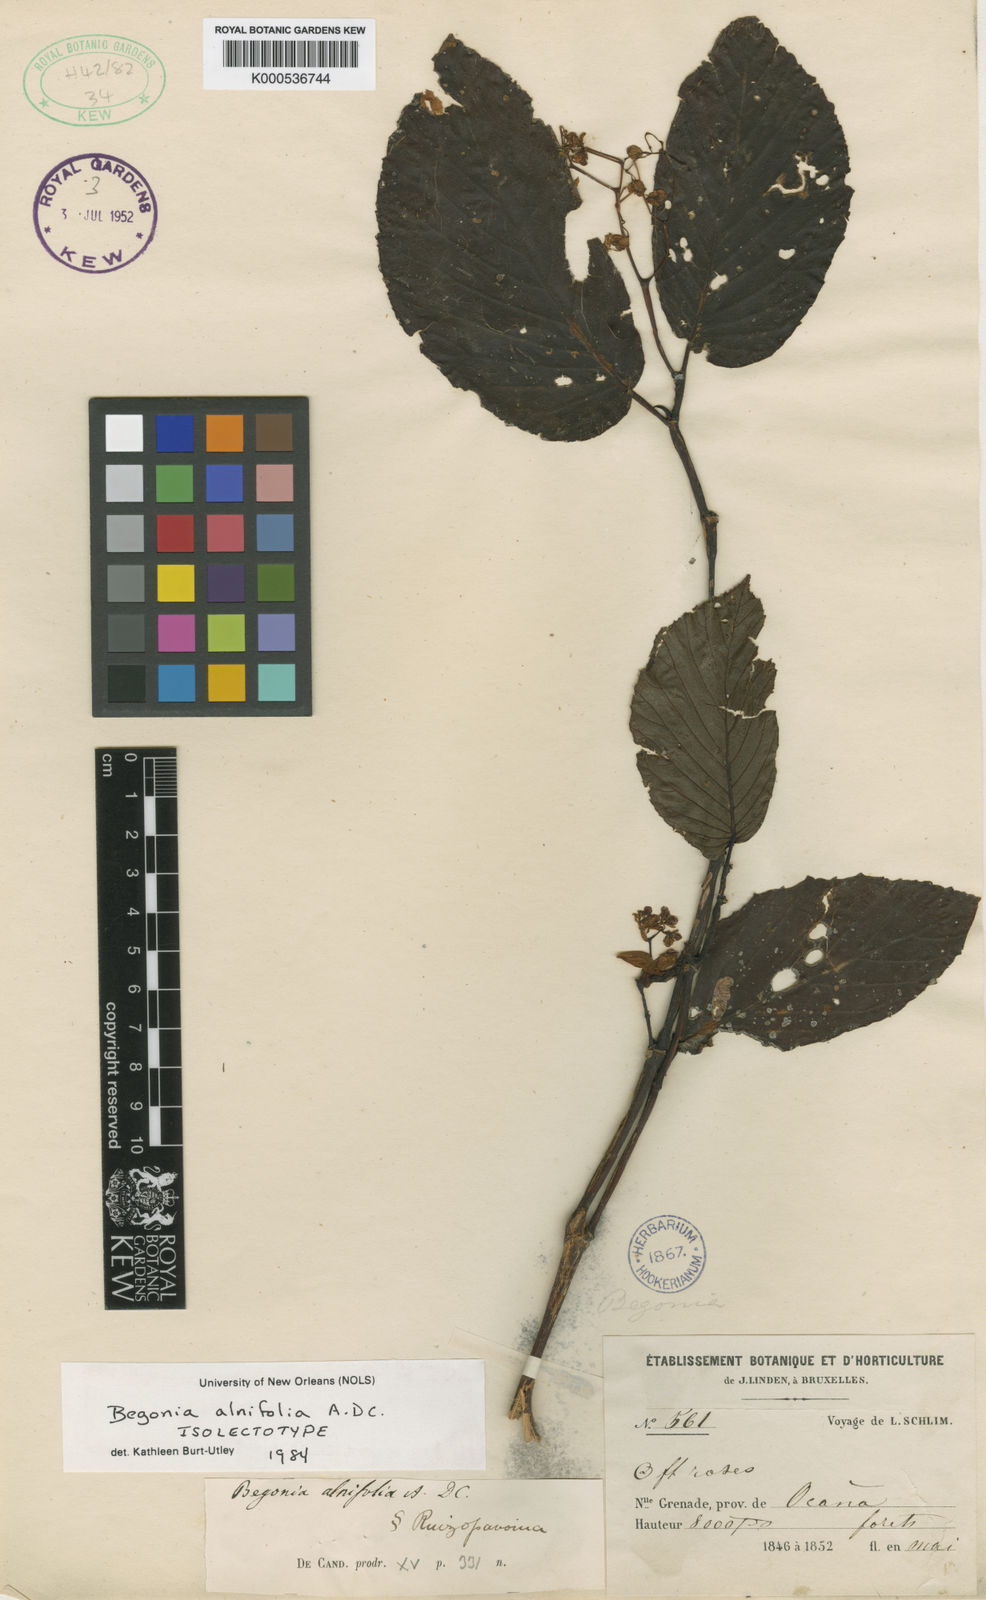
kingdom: Plantae
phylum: Tracheophyta
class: Magnoliopsida
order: Cucurbitales
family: Begoniaceae
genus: Begonia
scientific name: Begonia alnifolia
